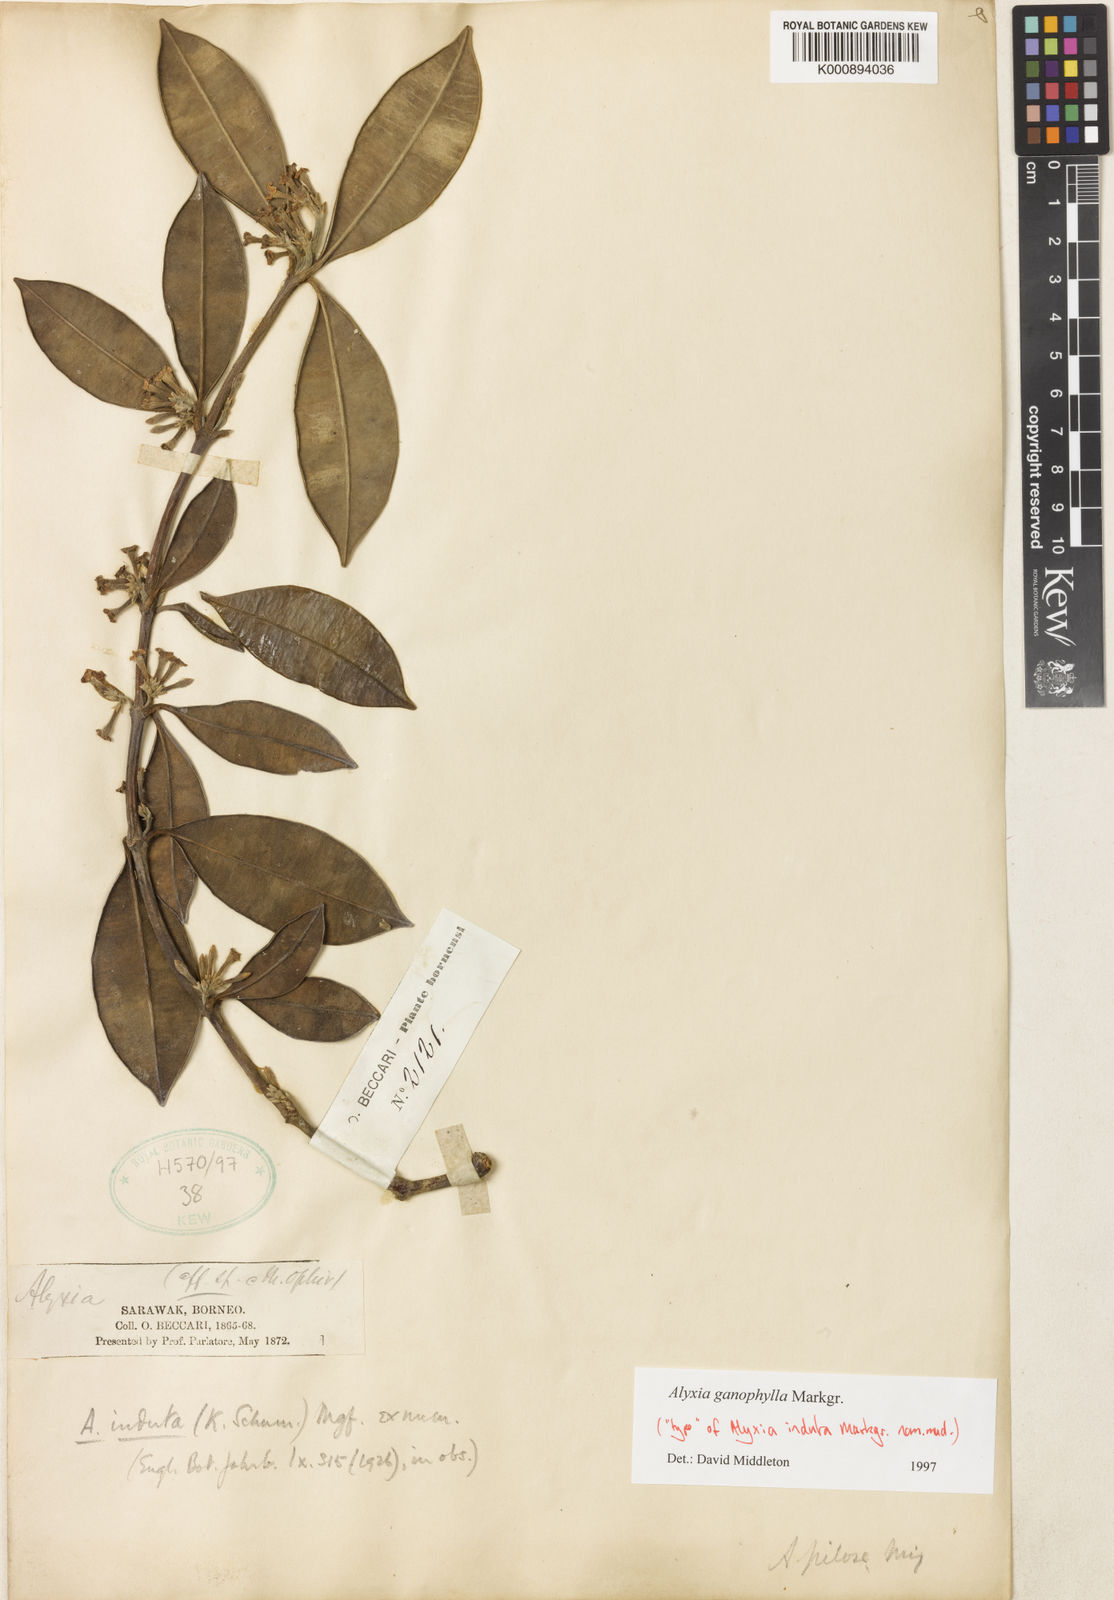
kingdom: Plantae
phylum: Tracheophyta
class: Magnoliopsida
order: Gentianales
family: Apocynaceae
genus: Alyxia
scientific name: Alyxia ganophylla
